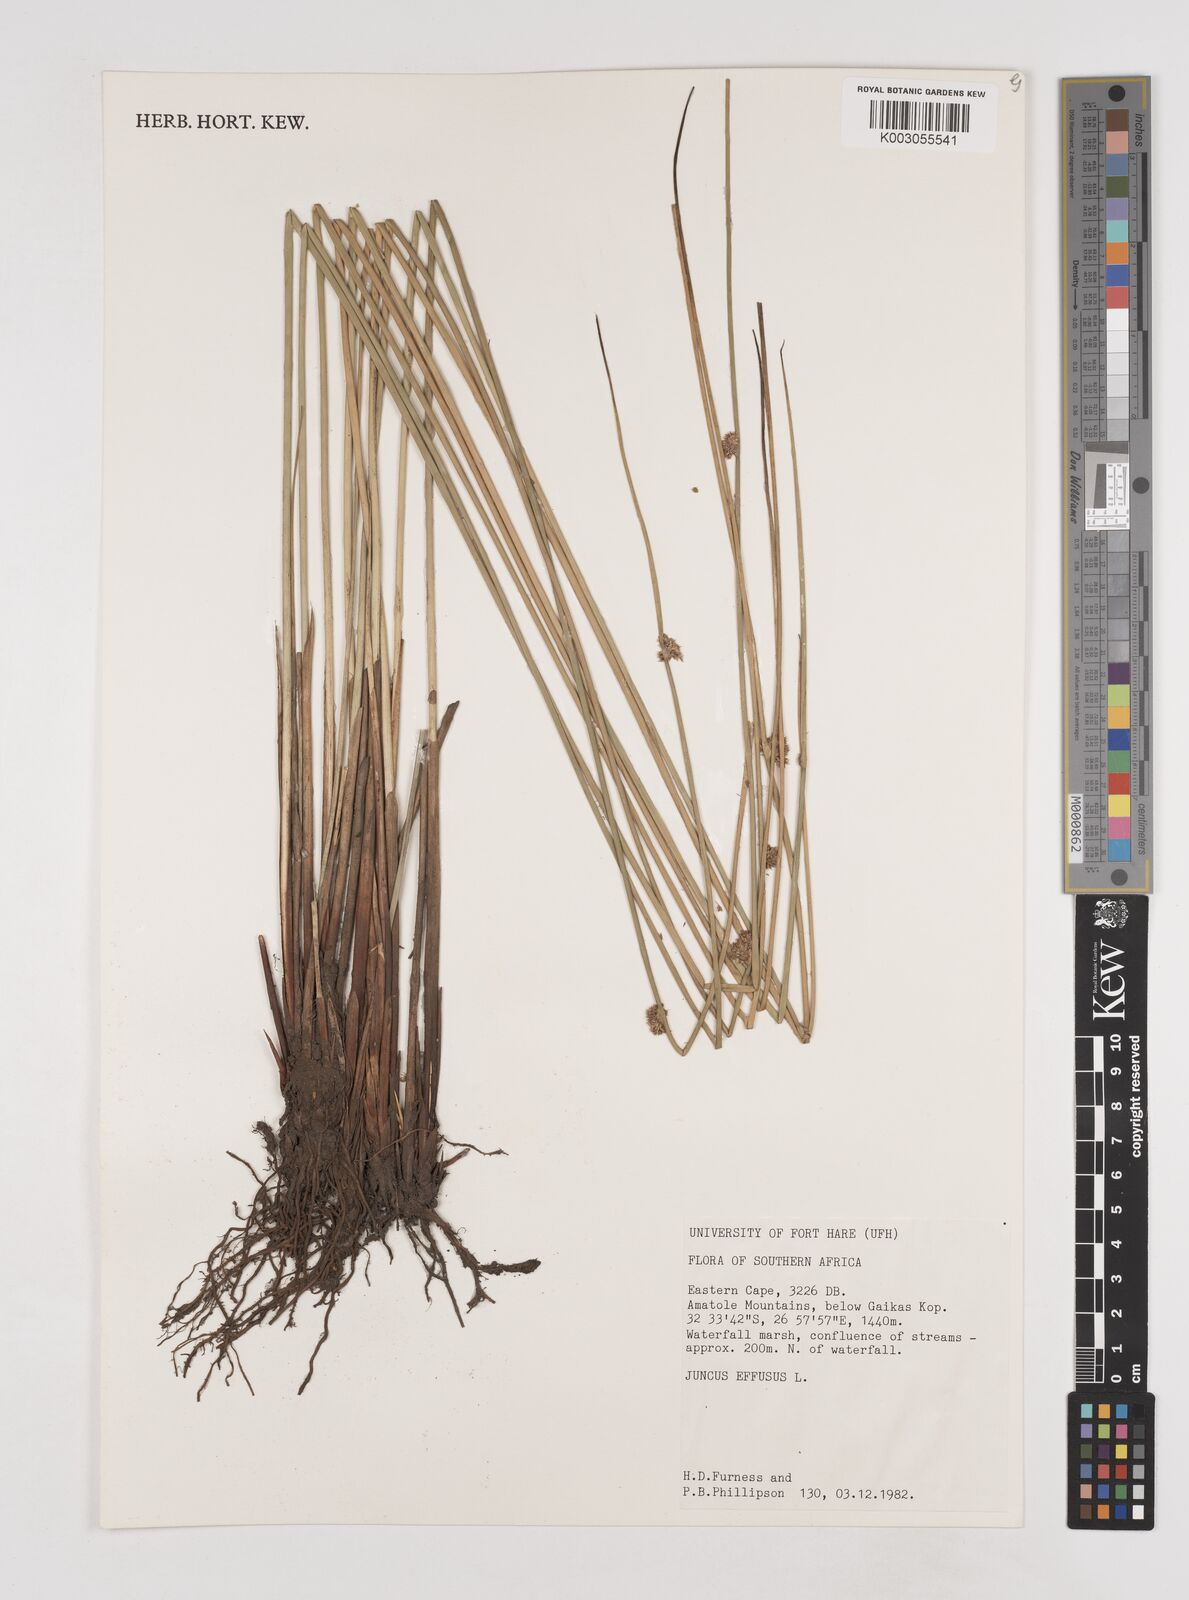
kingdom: Plantae
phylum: Tracheophyta
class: Liliopsida
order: Poales
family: Juncaceae
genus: Juncus
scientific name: Juncus effusus
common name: Soft rush
